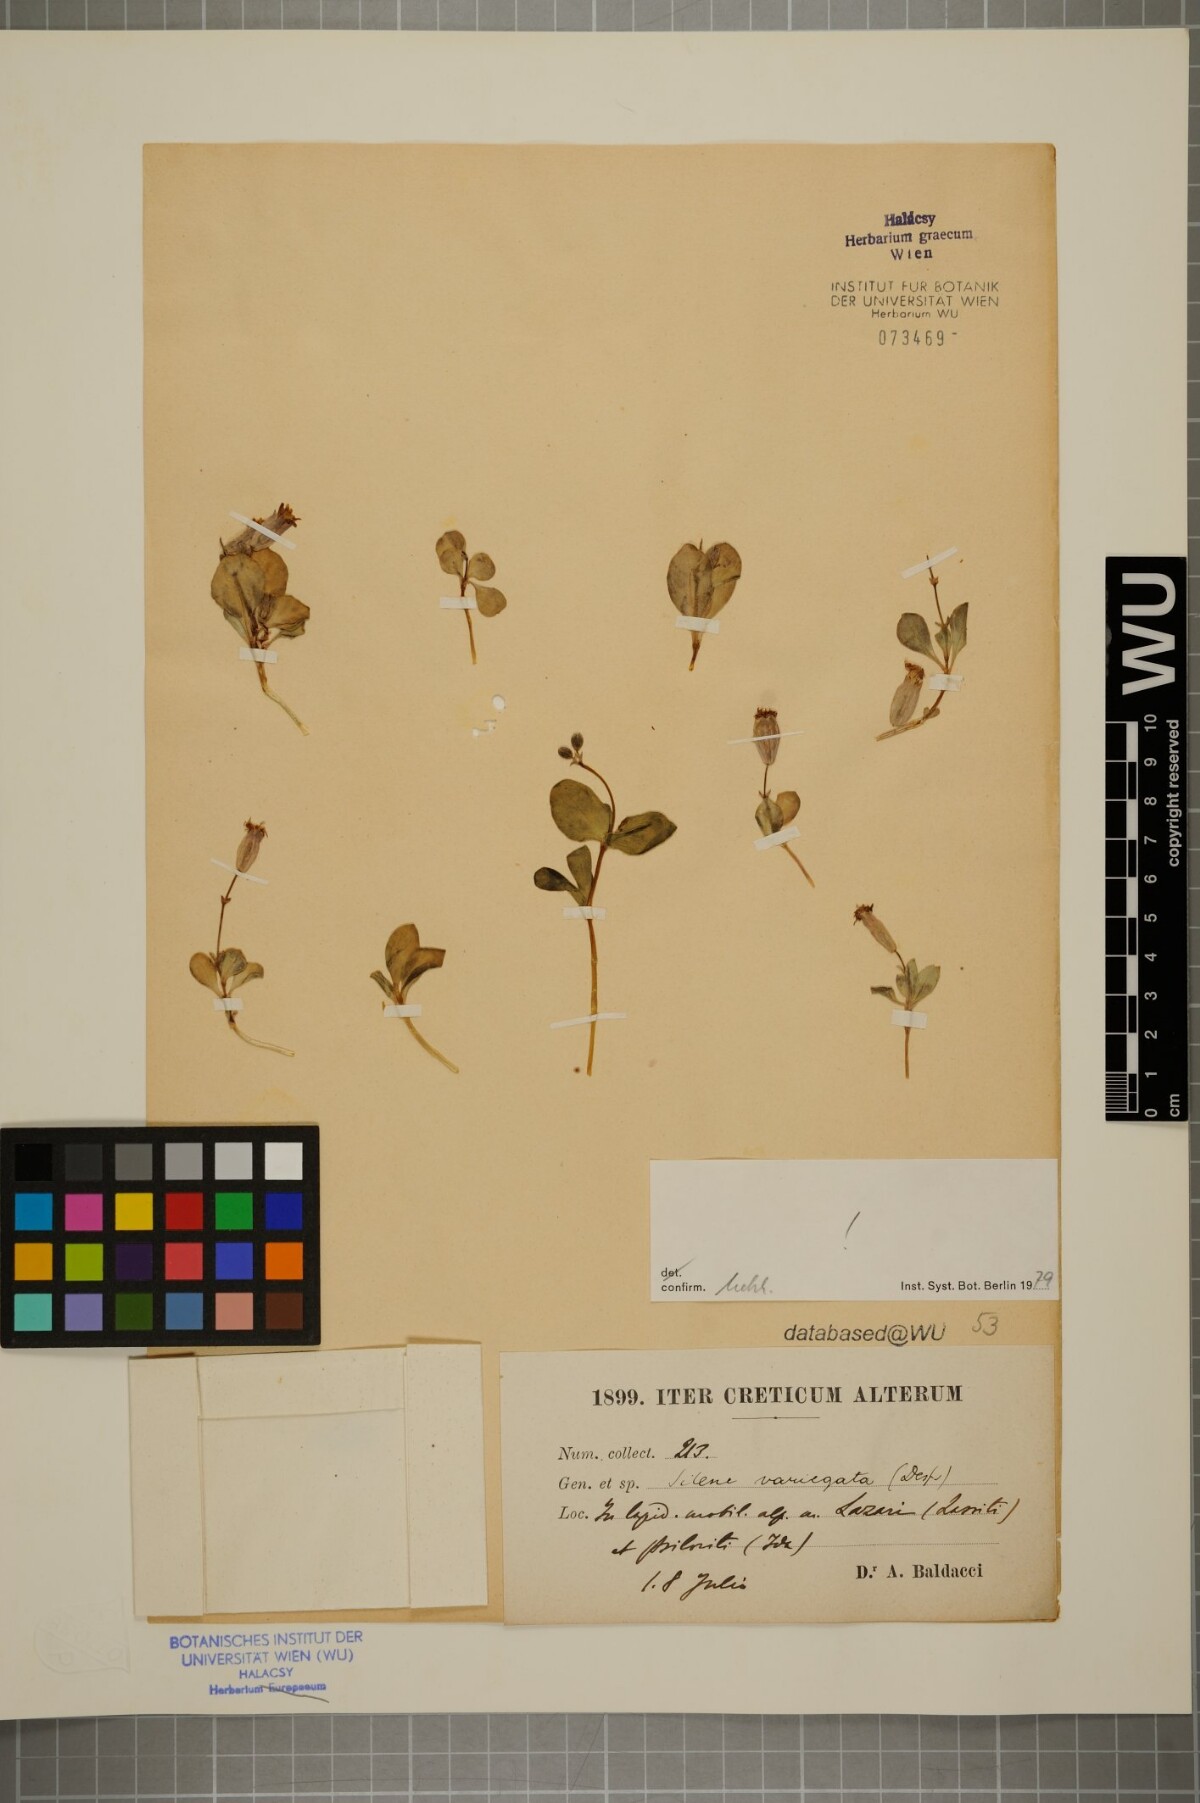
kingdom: Plantae
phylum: Tracheophyta
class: Magnoliopsida
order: Caryophyllales
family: Caryophyllaceae
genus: Silene
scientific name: Silene variegata
